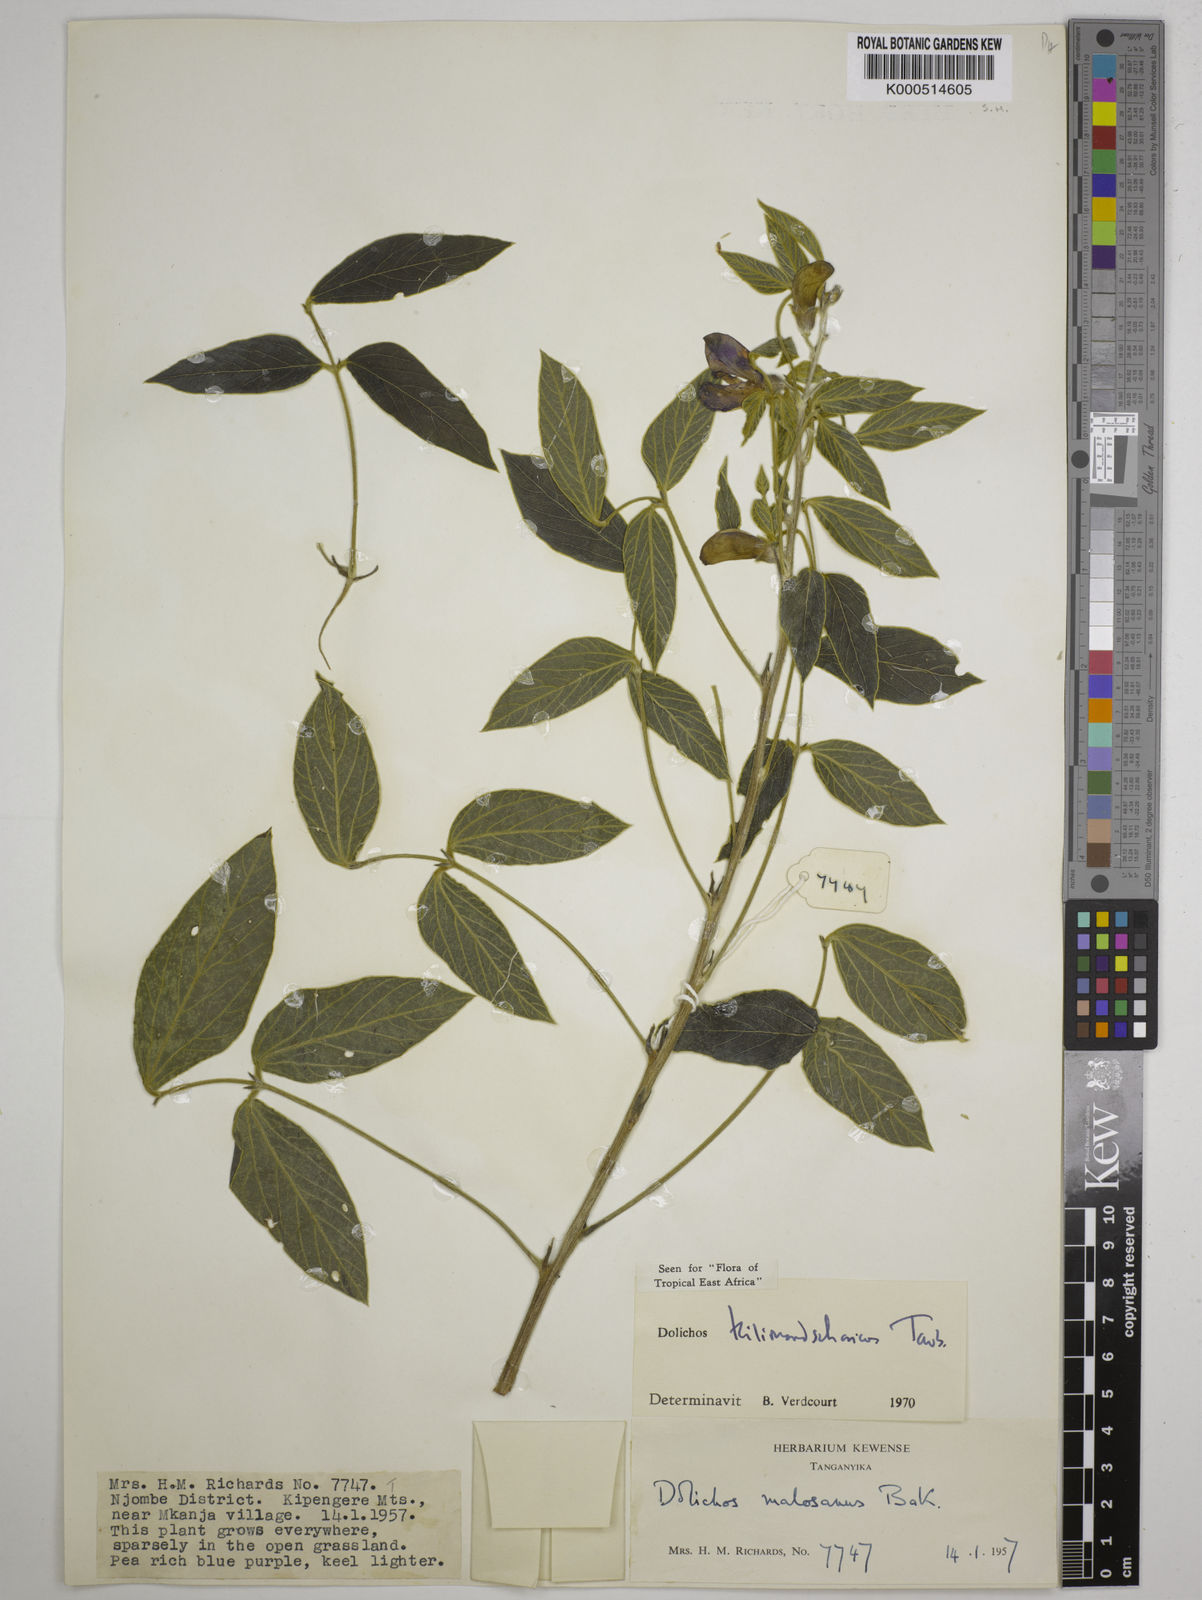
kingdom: Plantae
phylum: Tracheophyta
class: Magnoliopsida
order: Fabales
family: Fabaceae
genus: Dolichos
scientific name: Dolichos kilimandscharicus
